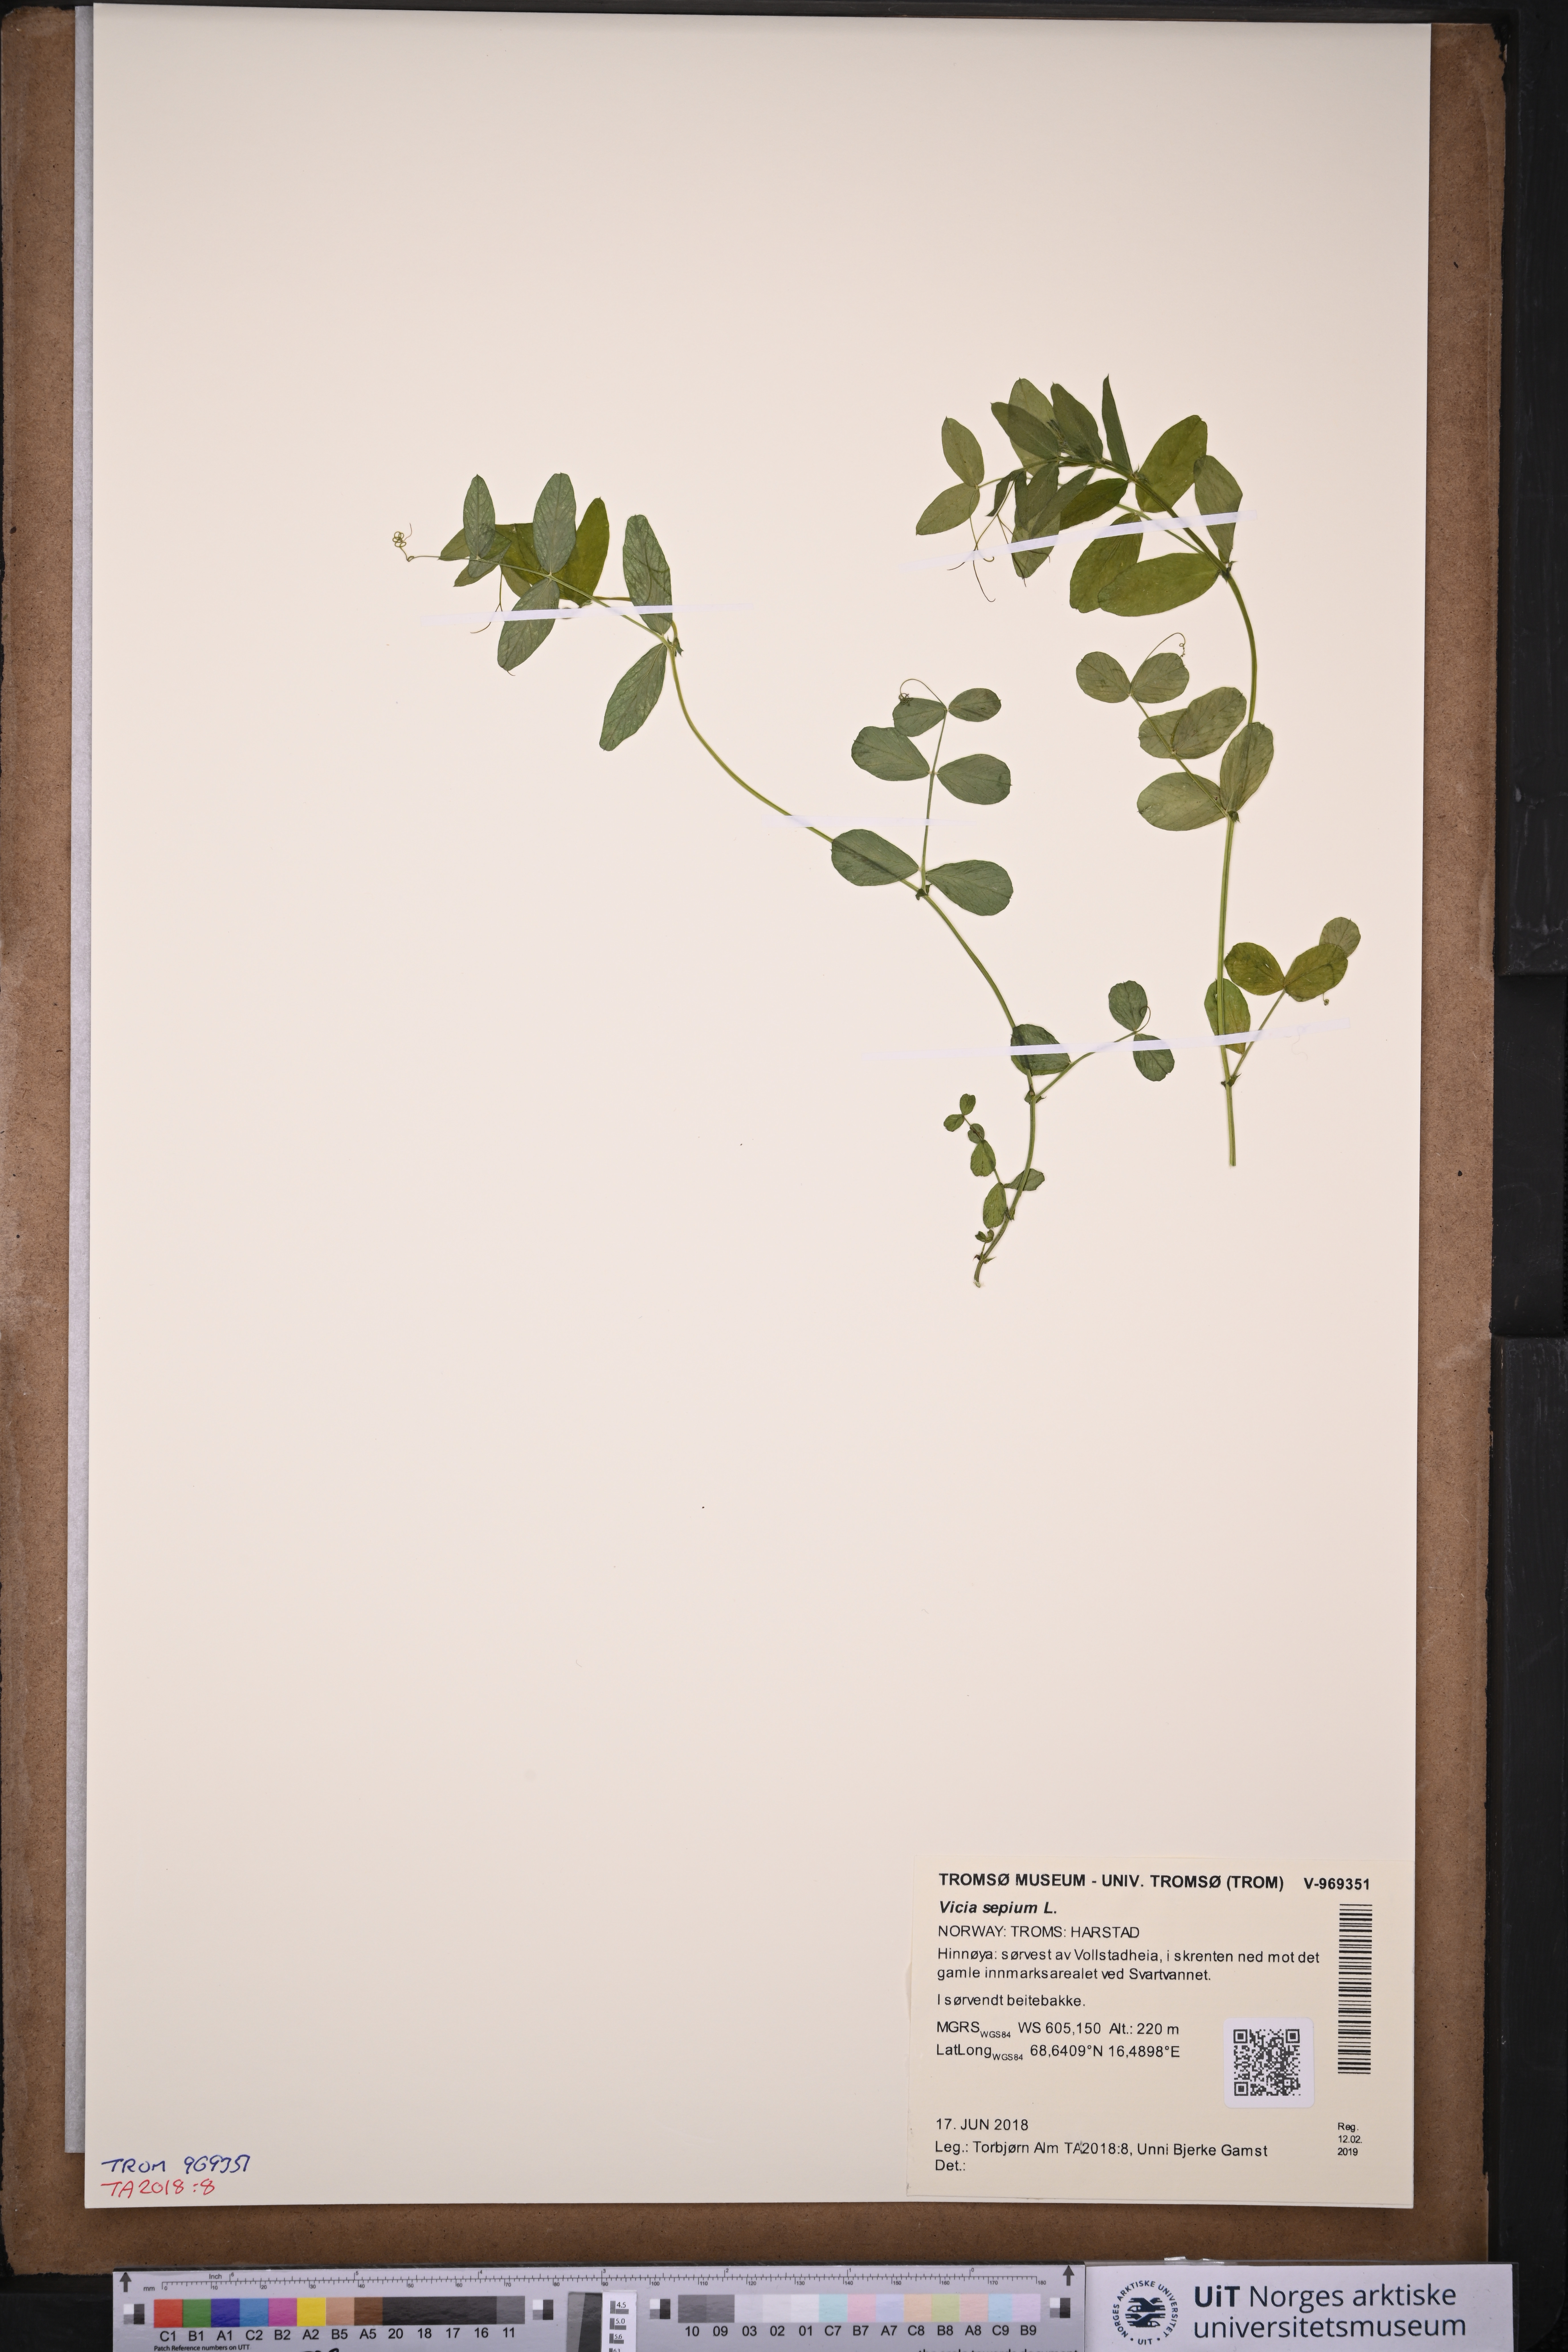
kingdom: Plantae
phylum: Tracheophyta
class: Magnoliopsida
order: Fabales
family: Fabaceae
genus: Vicia
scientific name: Vicia sepium
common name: Bush vetch
